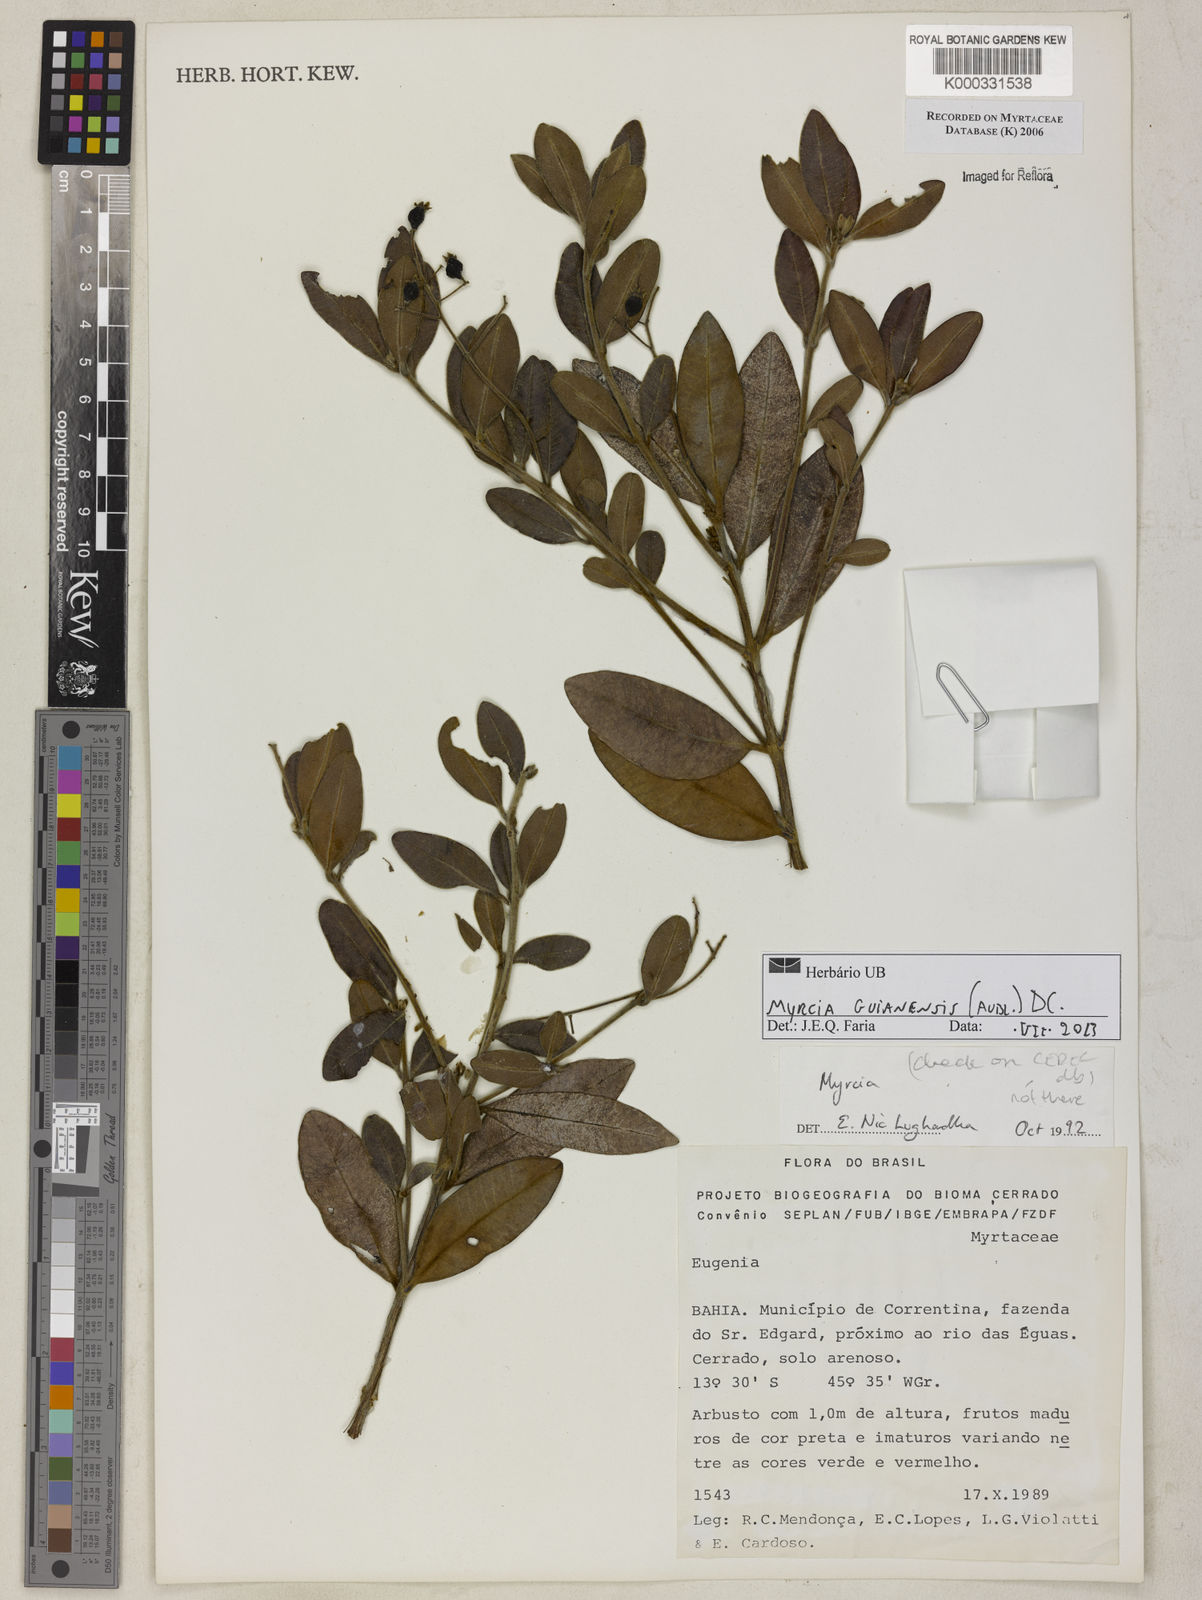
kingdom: Plantae
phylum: Tracheophyta
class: Magnoliopsida
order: Myrtales
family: Myrtaceae
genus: Myrcia
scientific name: Myrcia
